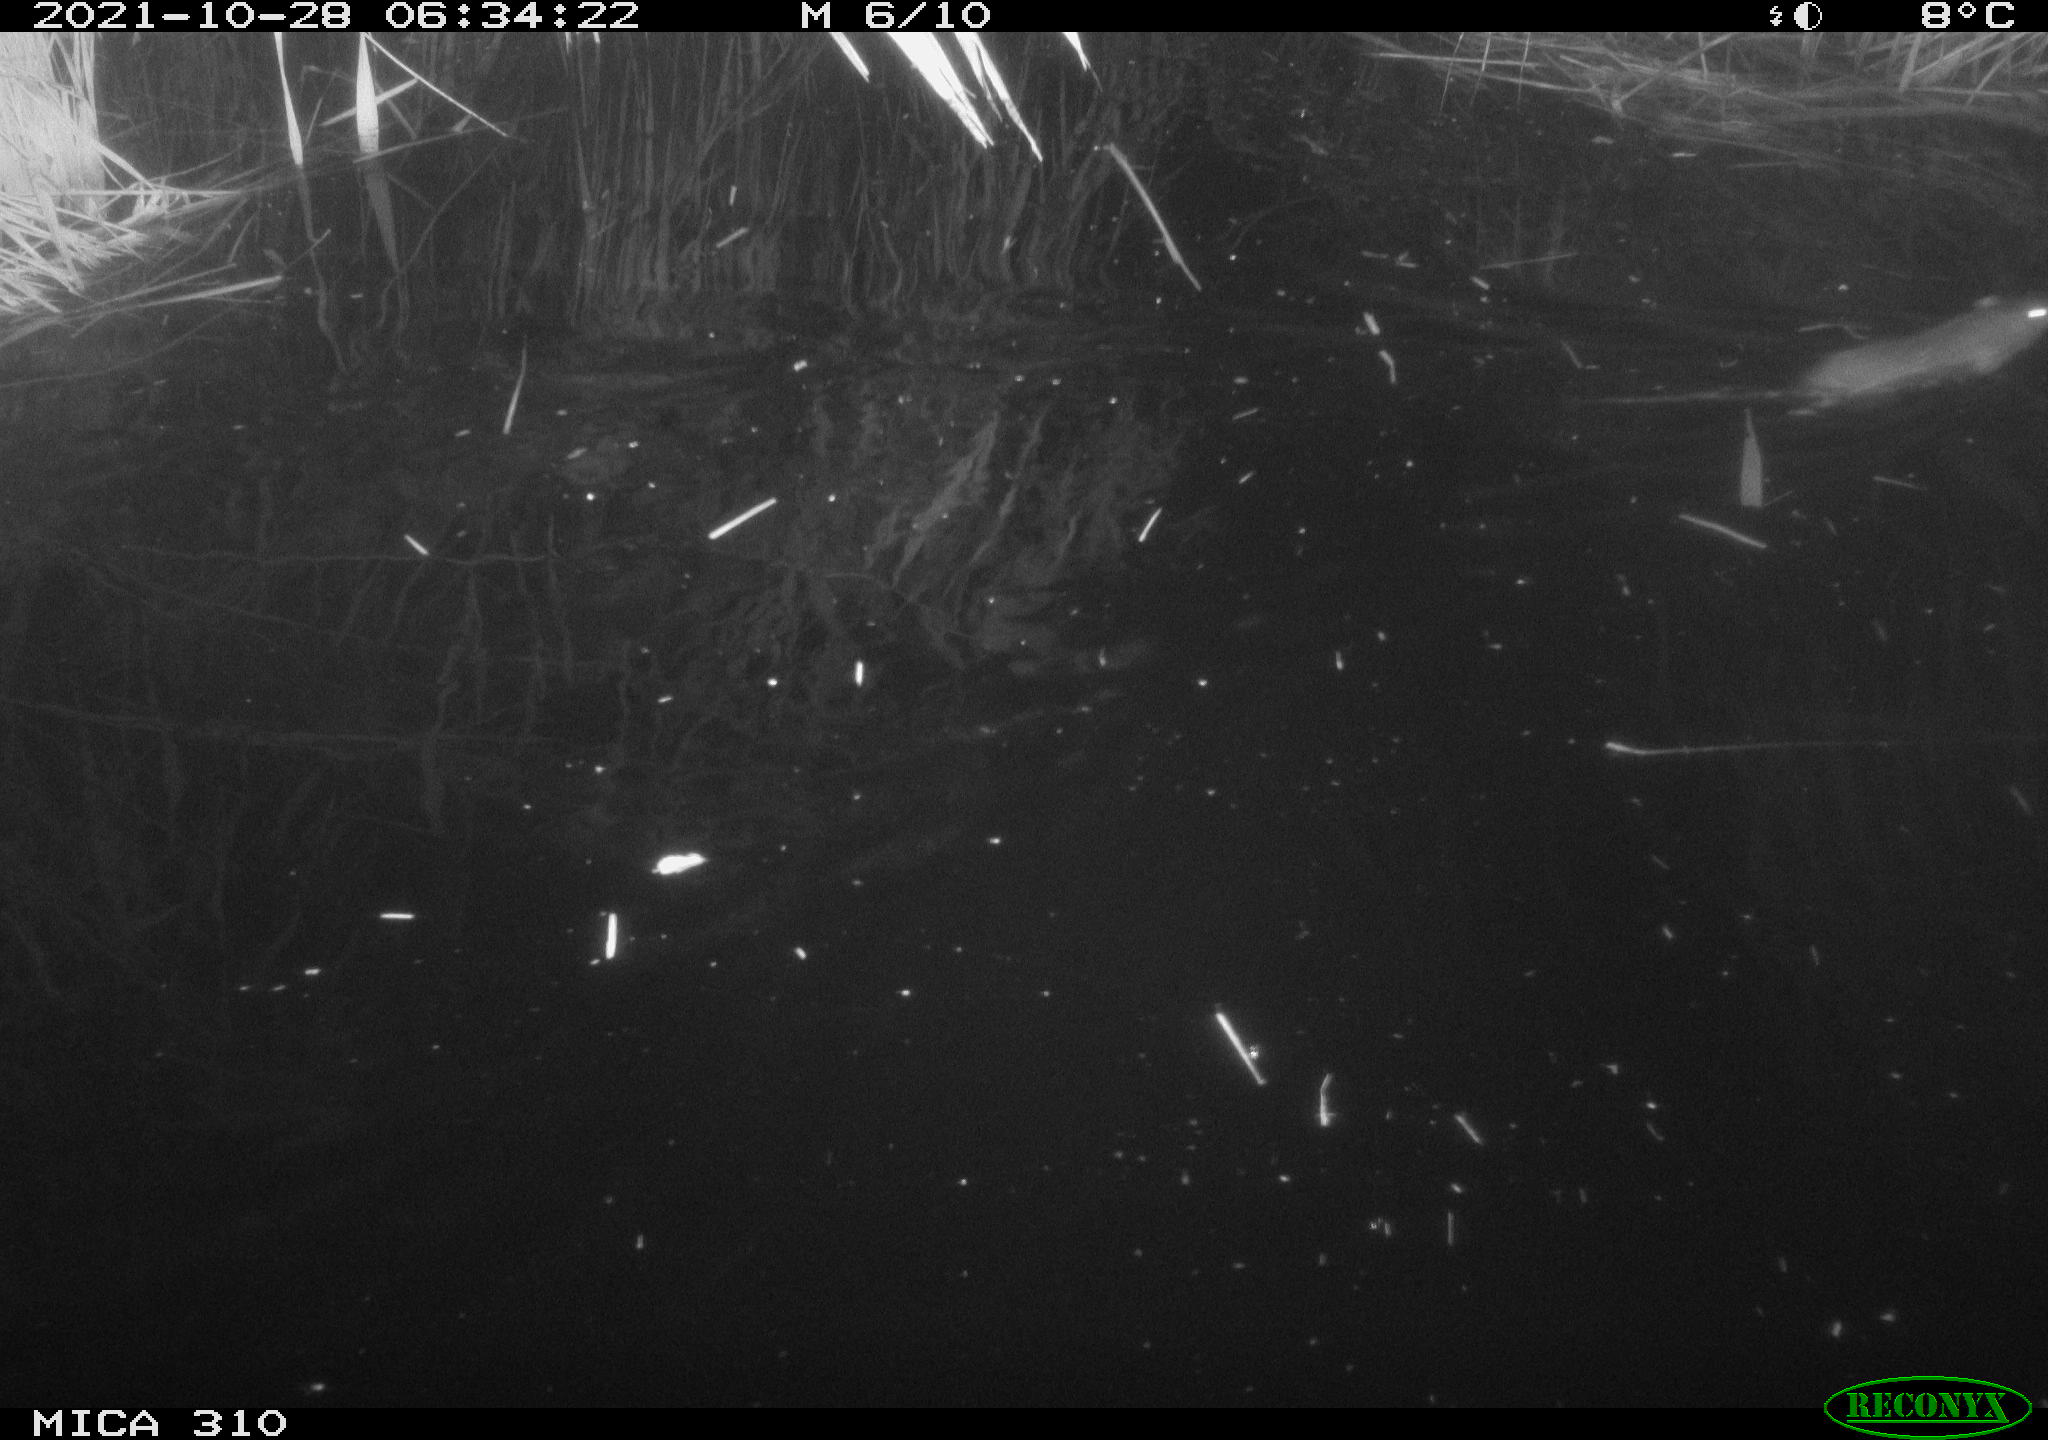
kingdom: Animalia
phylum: Chordata
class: Mammalia
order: Rodentia
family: Muridae
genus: Rattus
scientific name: Rattus norvegicus
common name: Brown rat
